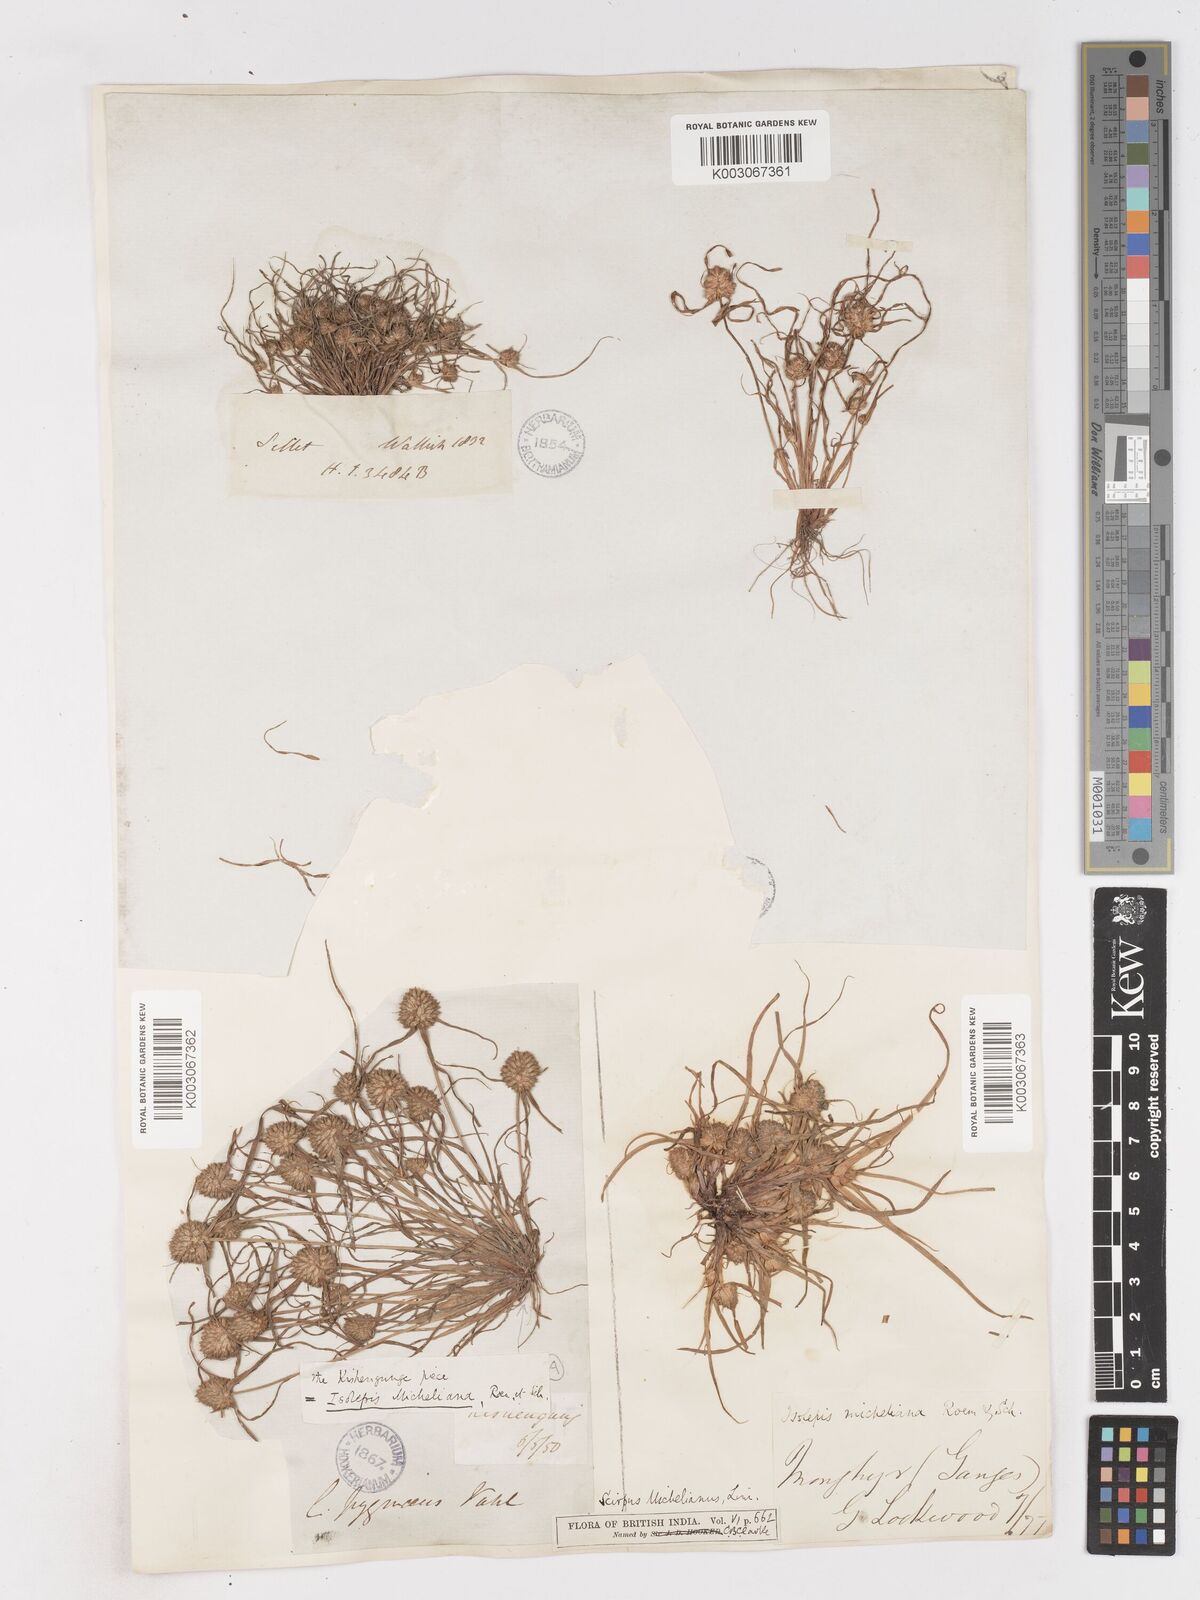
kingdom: Plantae
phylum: Tracheophyta
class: Liliopsida
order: Poales
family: Cyperaceae
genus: Cyperus
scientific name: Cyperus michelianus
